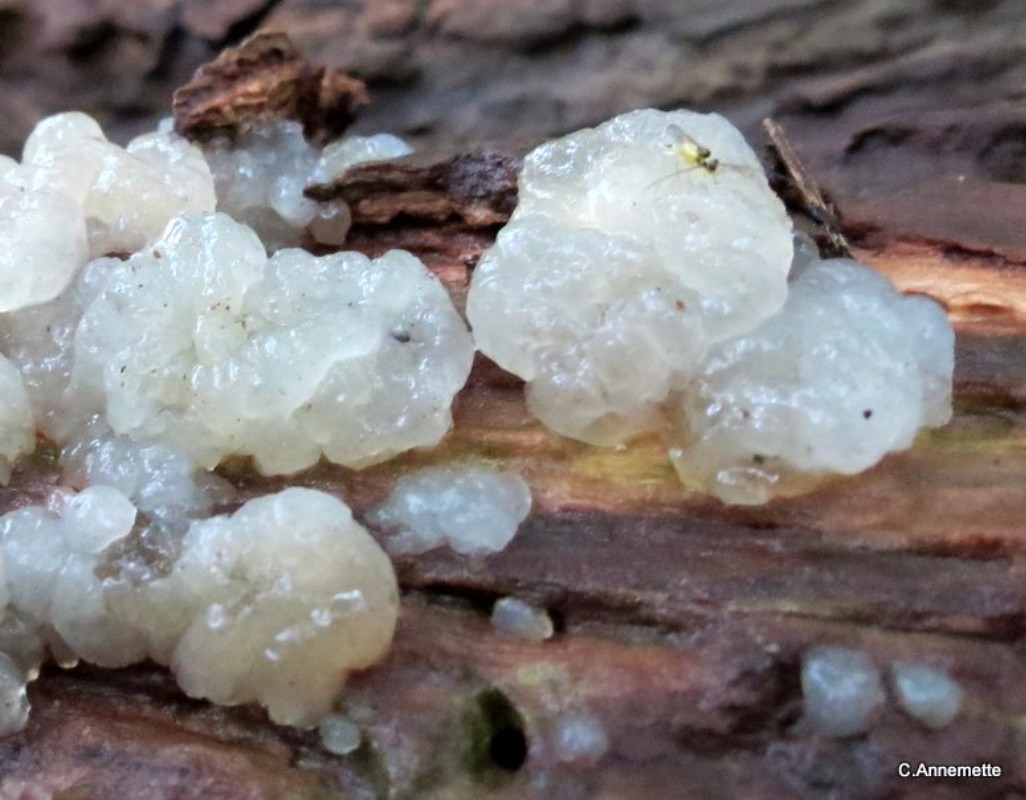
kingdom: Fungi
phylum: Basidiomycota
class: Agaricomycetes
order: Auriculariales
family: Hyaloriaceae
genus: Myxarium
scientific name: Myxarium nucleatum
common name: klar bævretop
